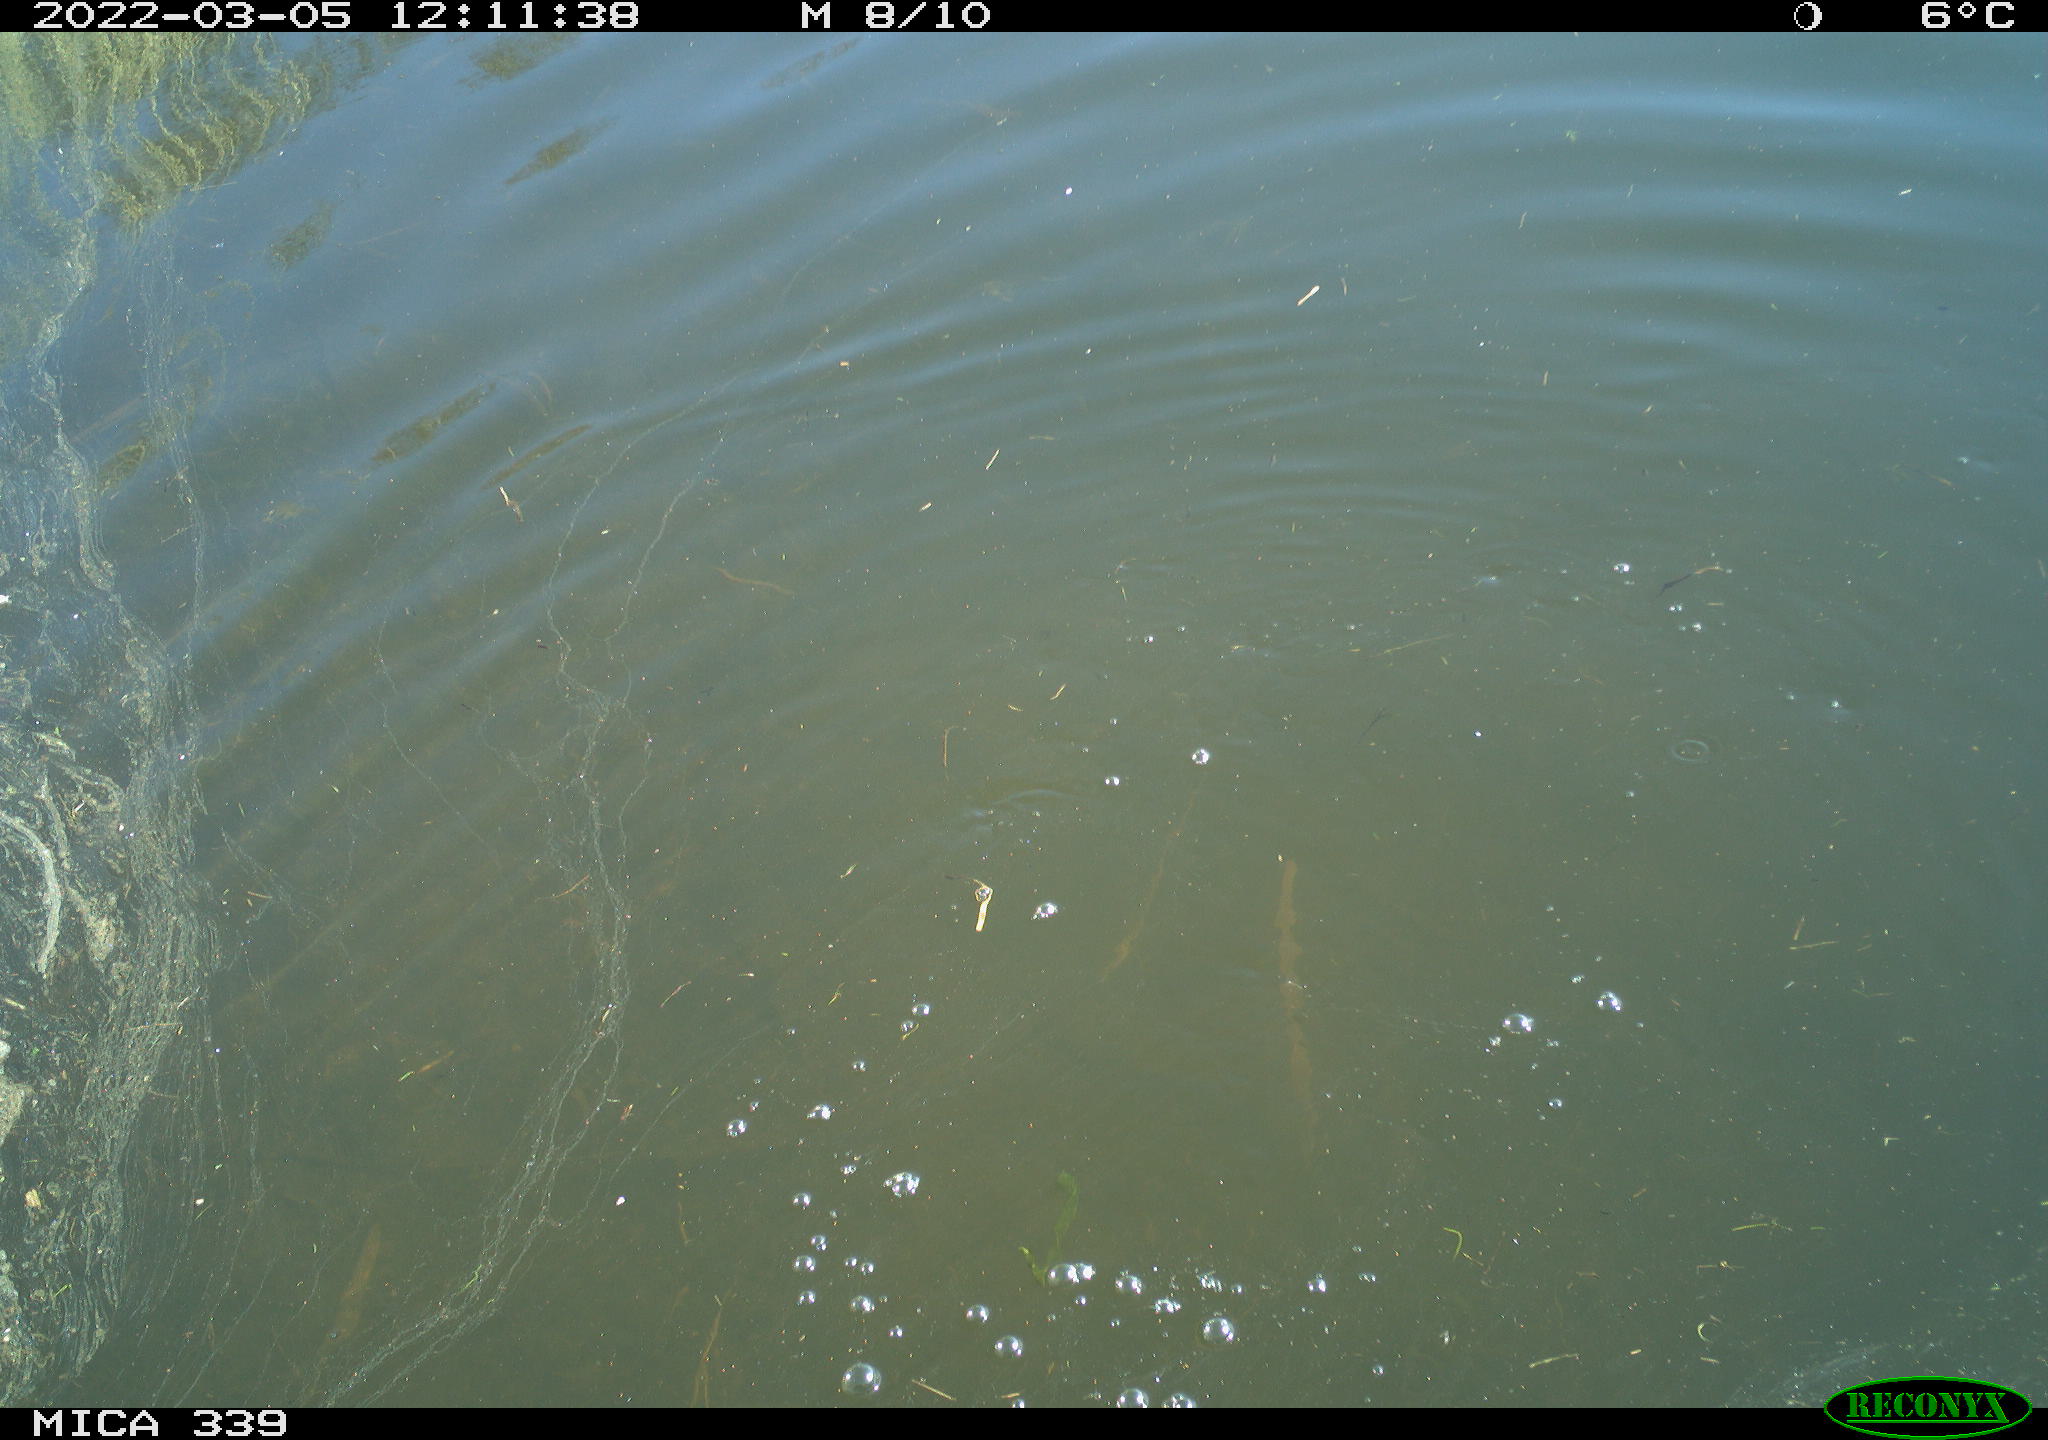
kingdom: Animalia
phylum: Chordata
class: Aves
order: Suliformes
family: Phalacrocoracidae
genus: Phalacrocorax
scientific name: Phalacrocorax carbo
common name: Great cormorant
